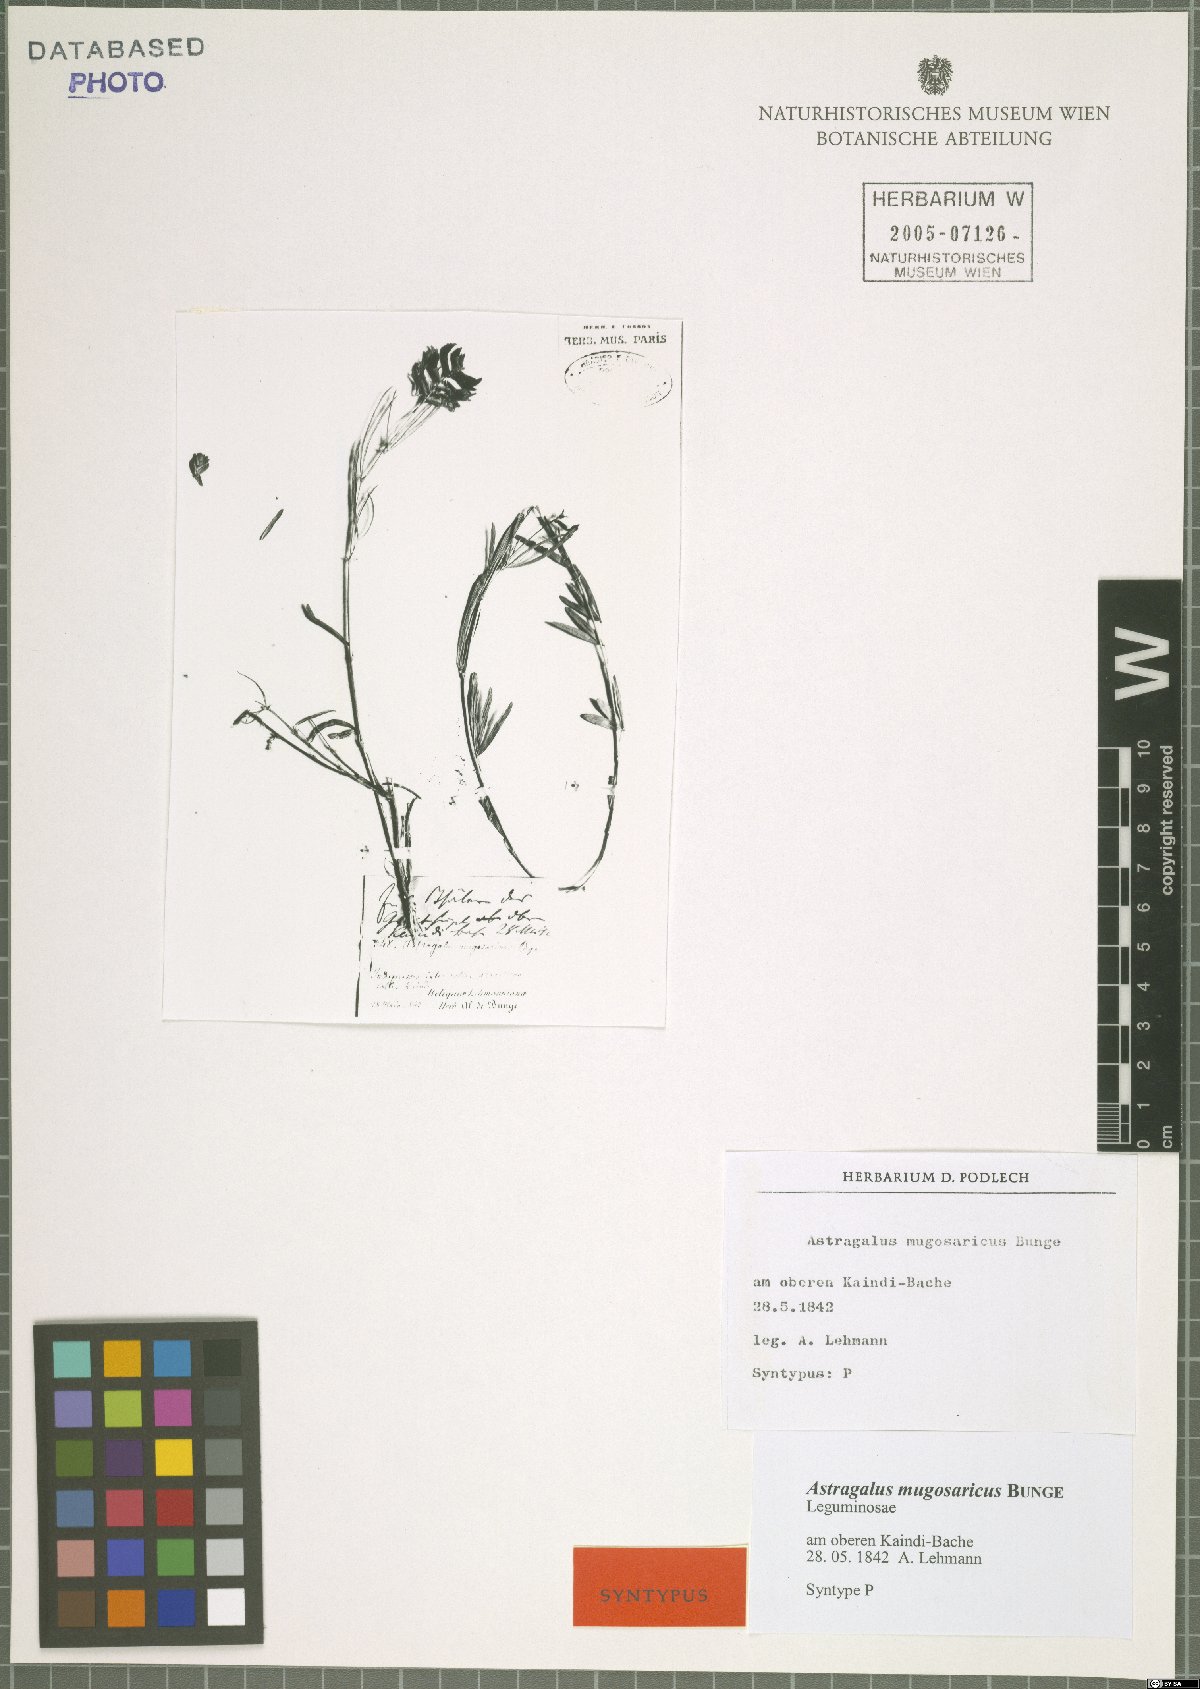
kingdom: Plantae
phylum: Tracheophyta
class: Magnoliopsida
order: Fabales
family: Fabaceae
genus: Astragalus
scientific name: Astragalus mugosaricus
